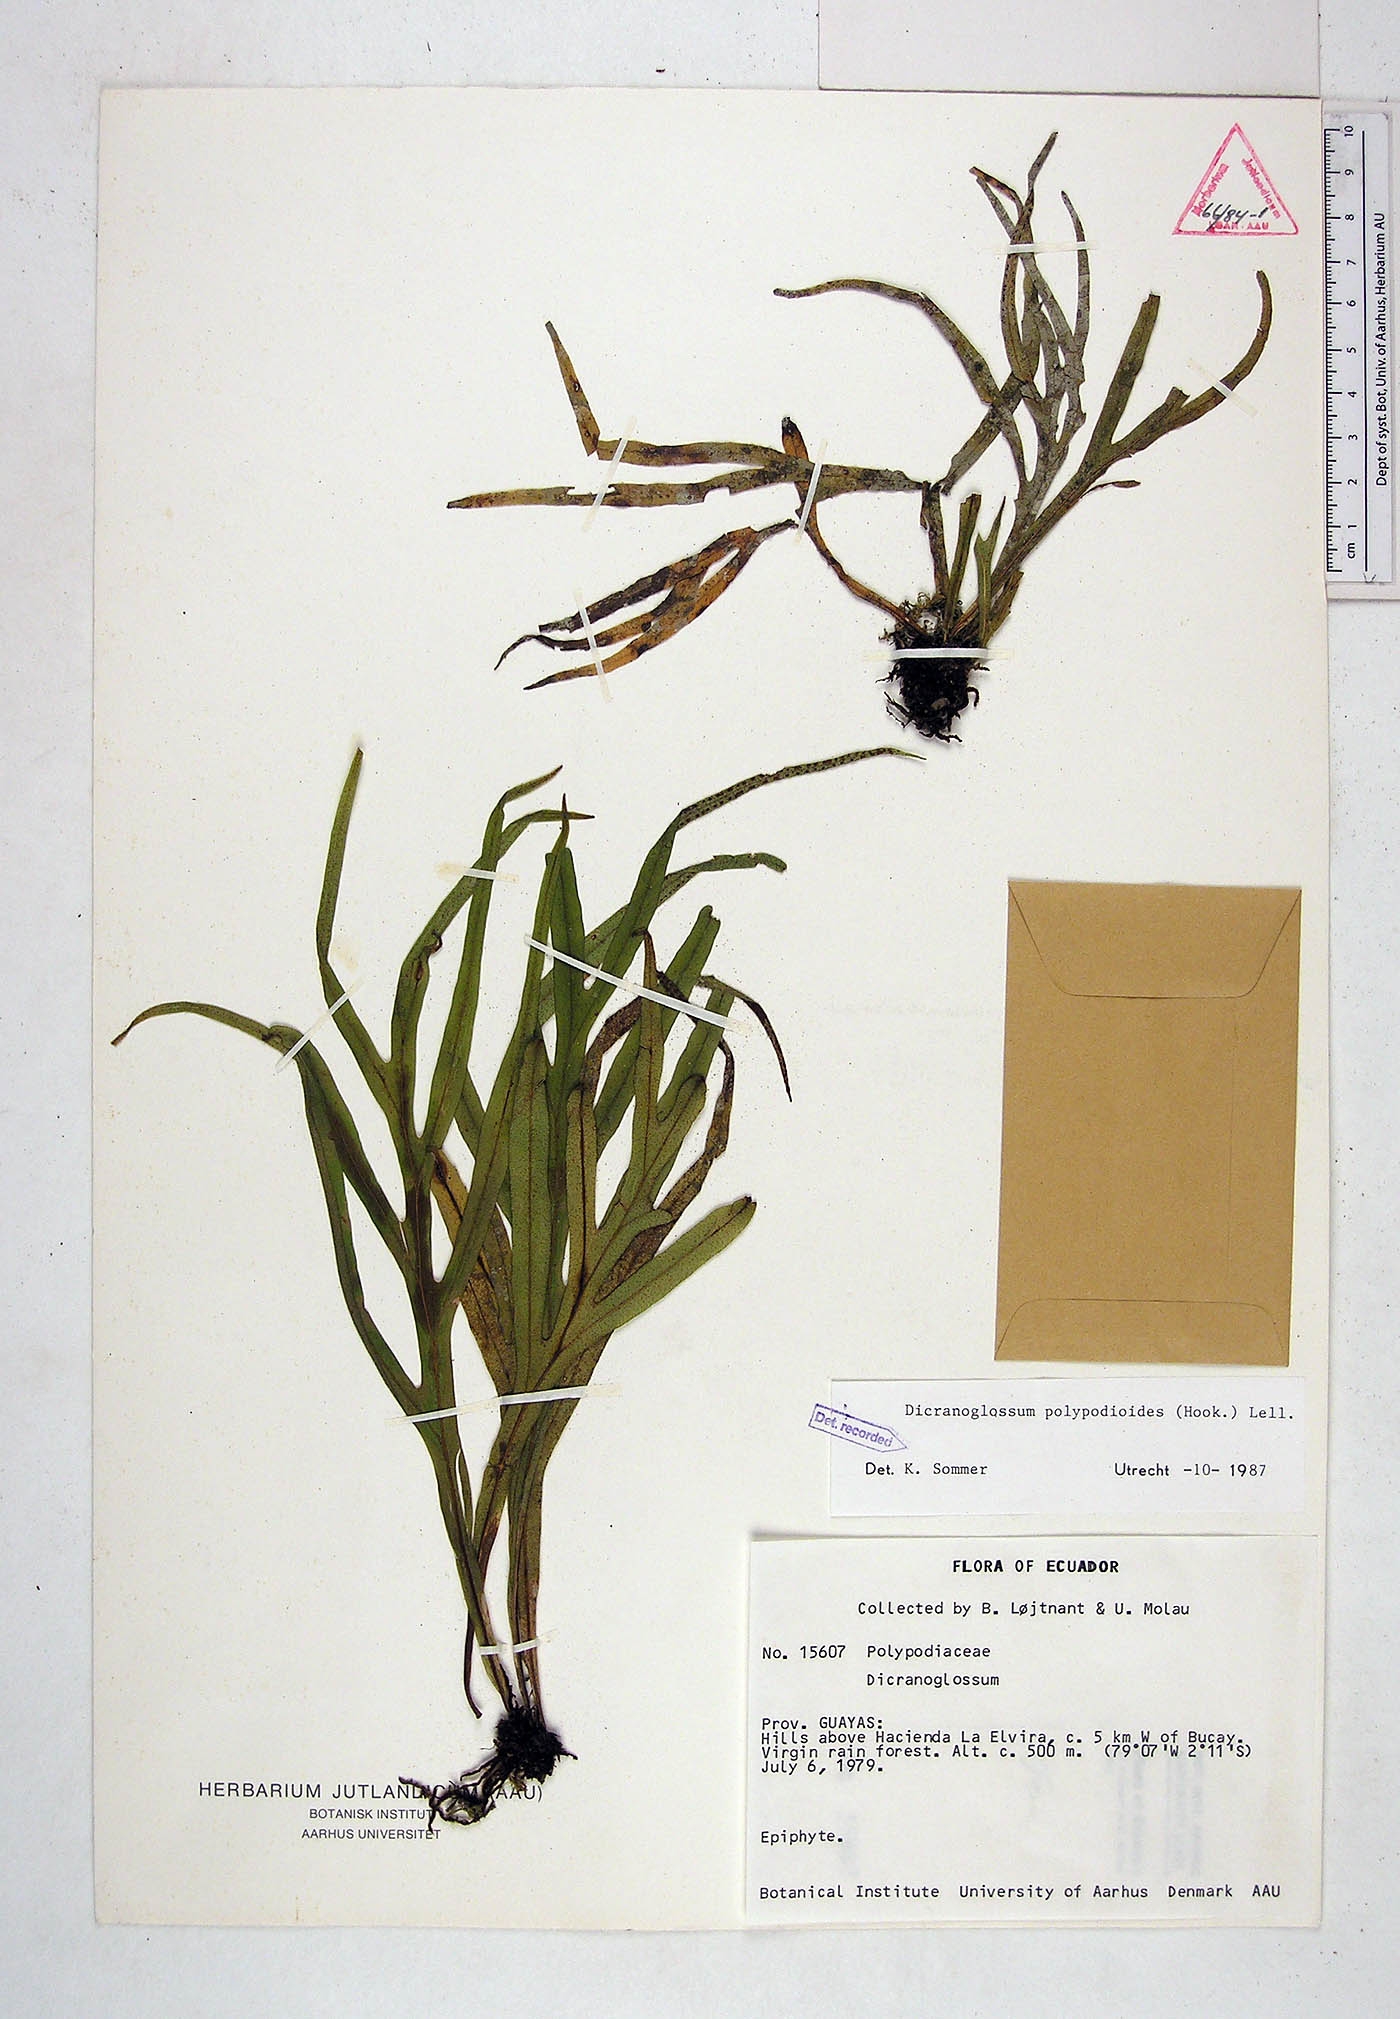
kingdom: Plantae
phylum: Tracheophyta
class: Polypodiopsida
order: Polypodiales
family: Polypodiaceae
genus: Pleopeltis
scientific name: Pleopeltis hookeri
